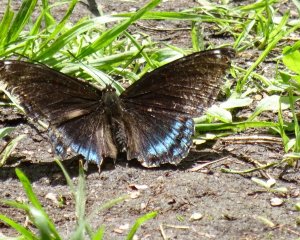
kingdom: Animalia
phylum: Arthropoda
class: Insecta
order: Lepidoptera
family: Nymphalidae
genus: Limenitis
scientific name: Limenitis astyanax
